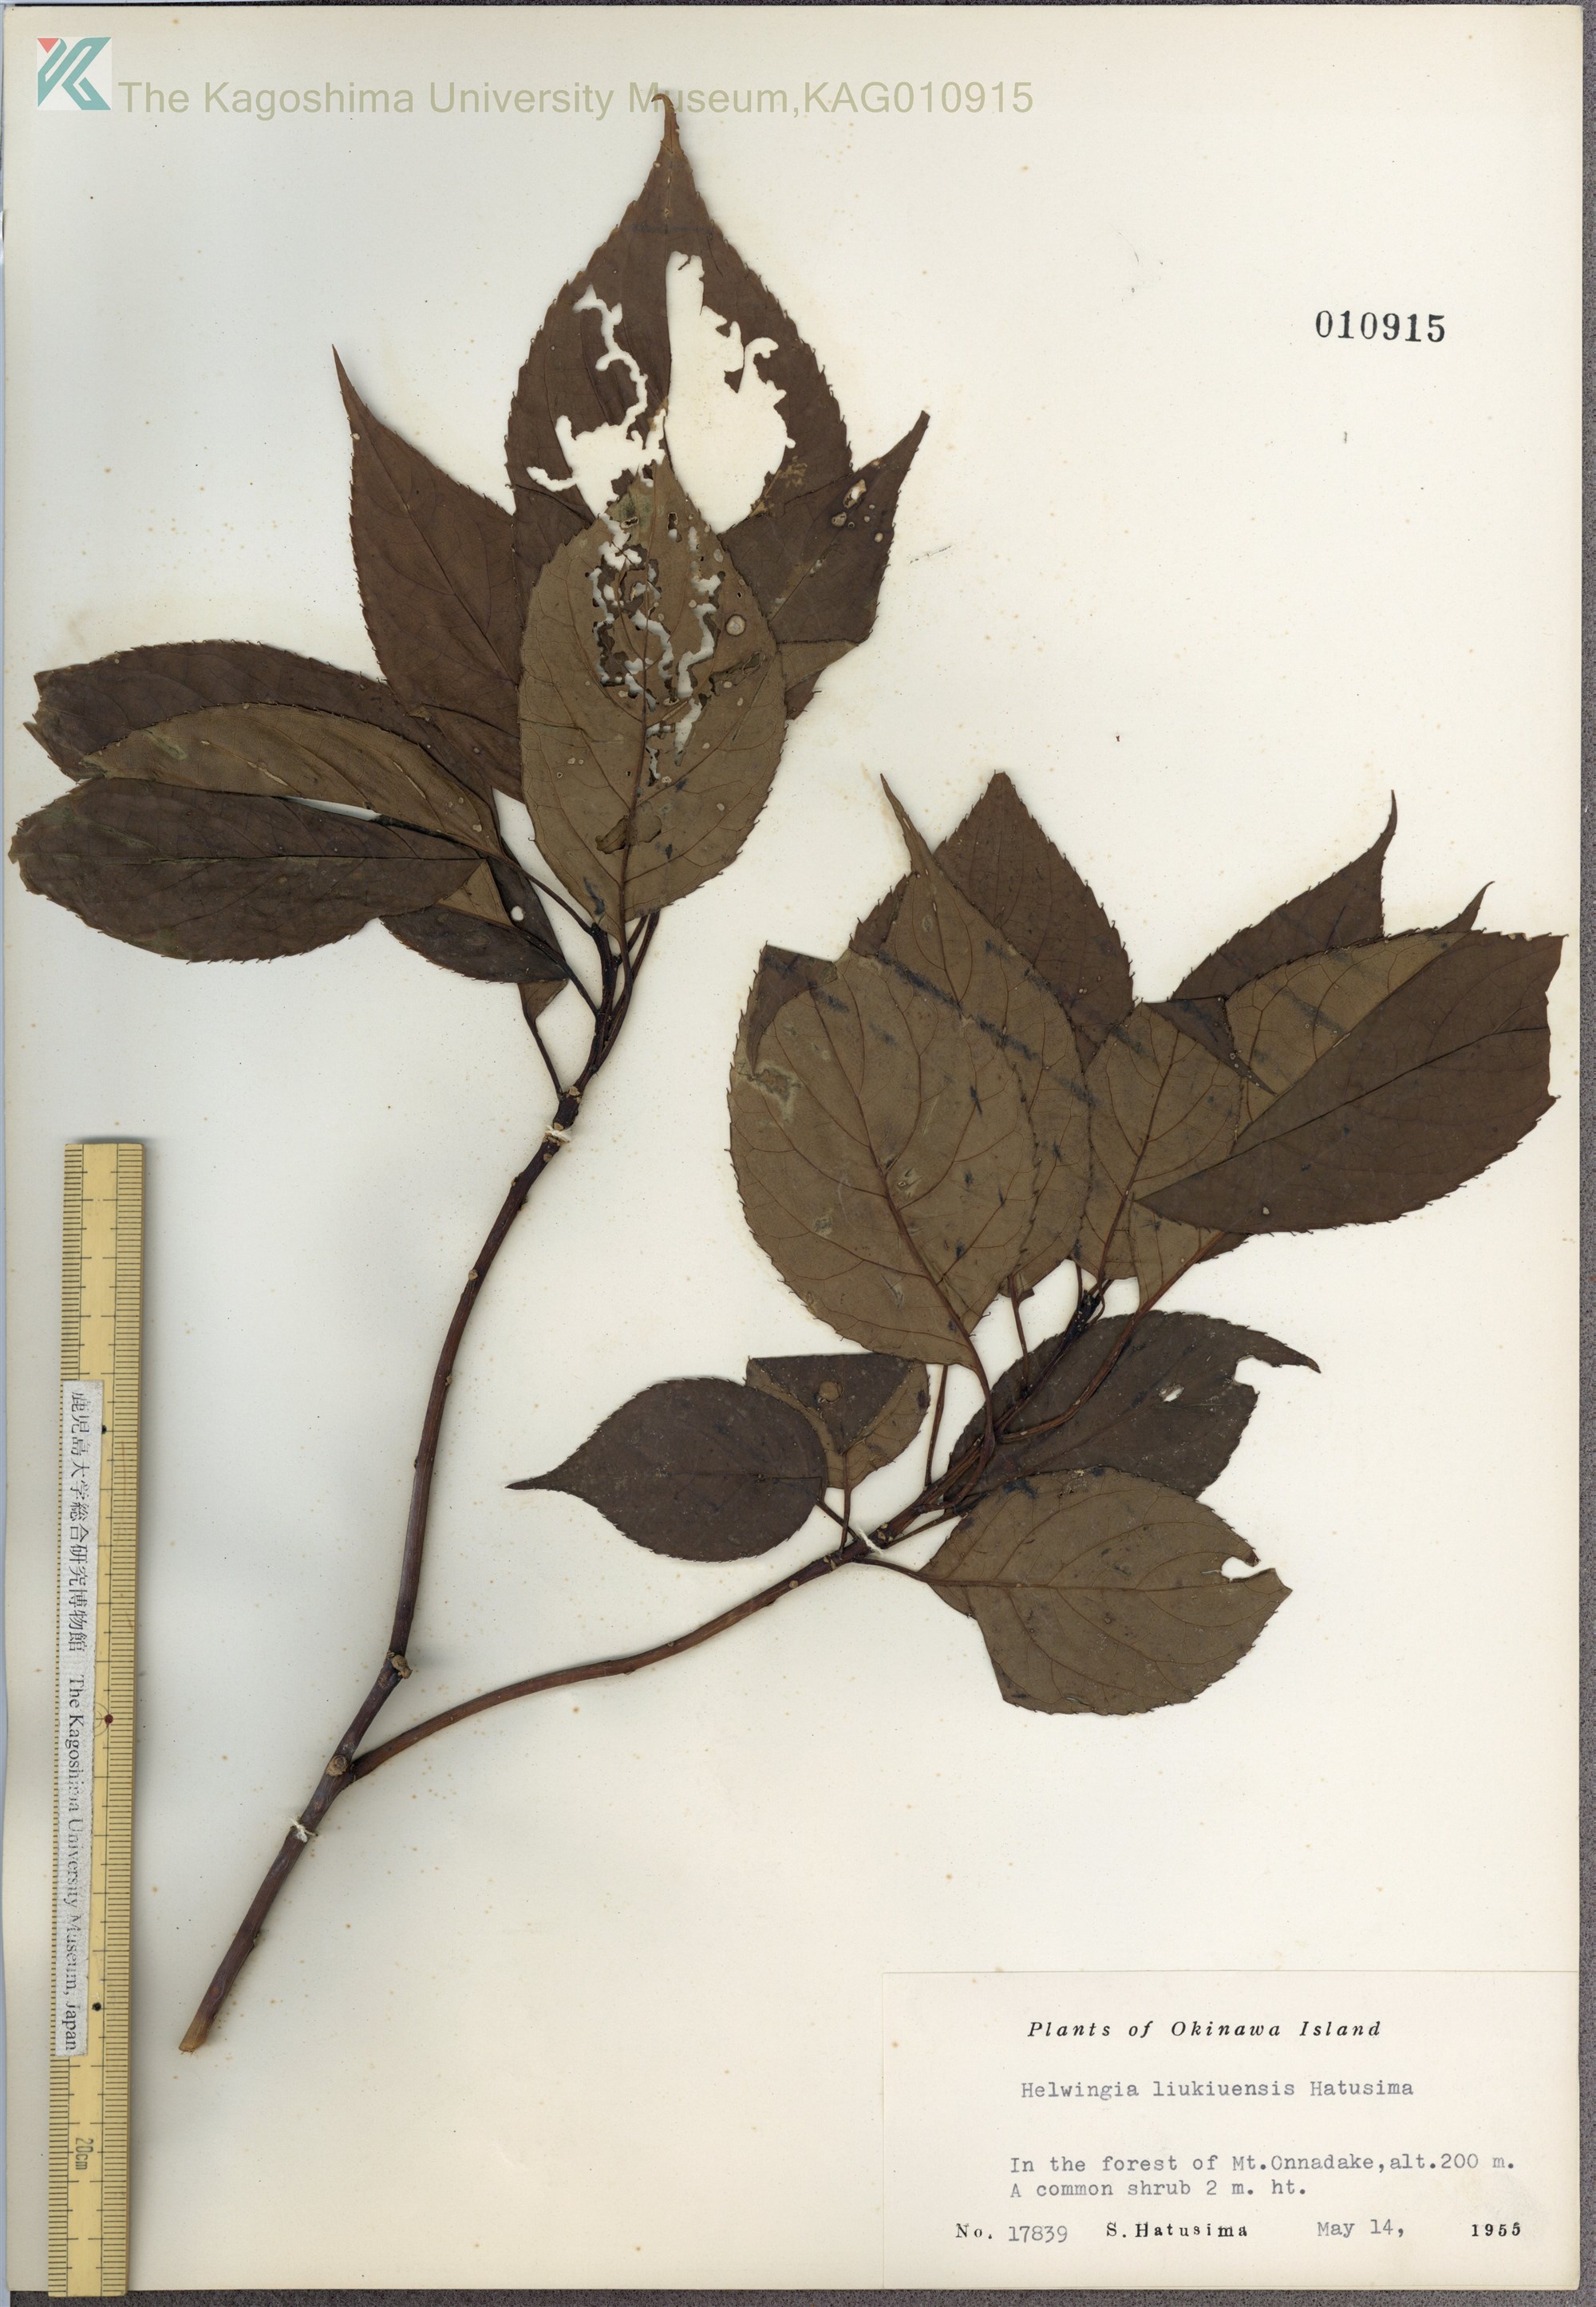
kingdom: Plantae
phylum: Tracheophyta
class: Magnoliopsida
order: Aquifoliales
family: Helwingiaceae
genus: Helwingia
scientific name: Helwingia japonica
